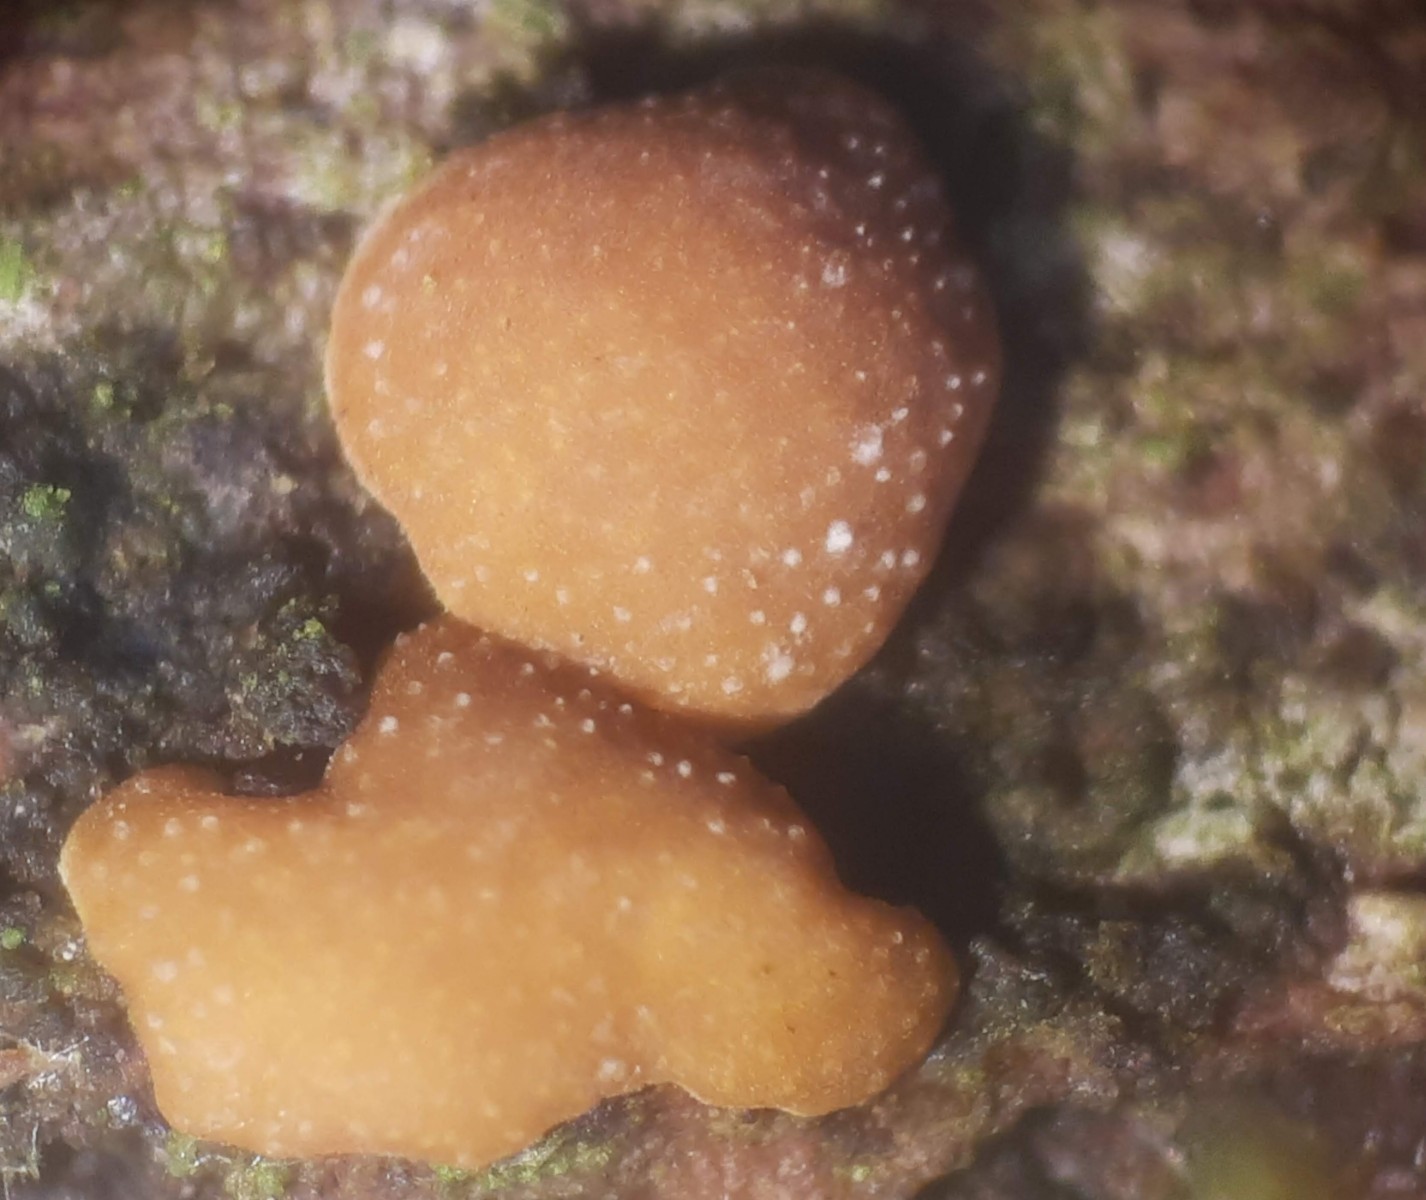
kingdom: Fungi
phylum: Ascomycota
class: Sordariomycetes
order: Hypocreales
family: Hypocreaceae
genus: Trichoderma
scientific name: Trichoderma
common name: kødkerne
